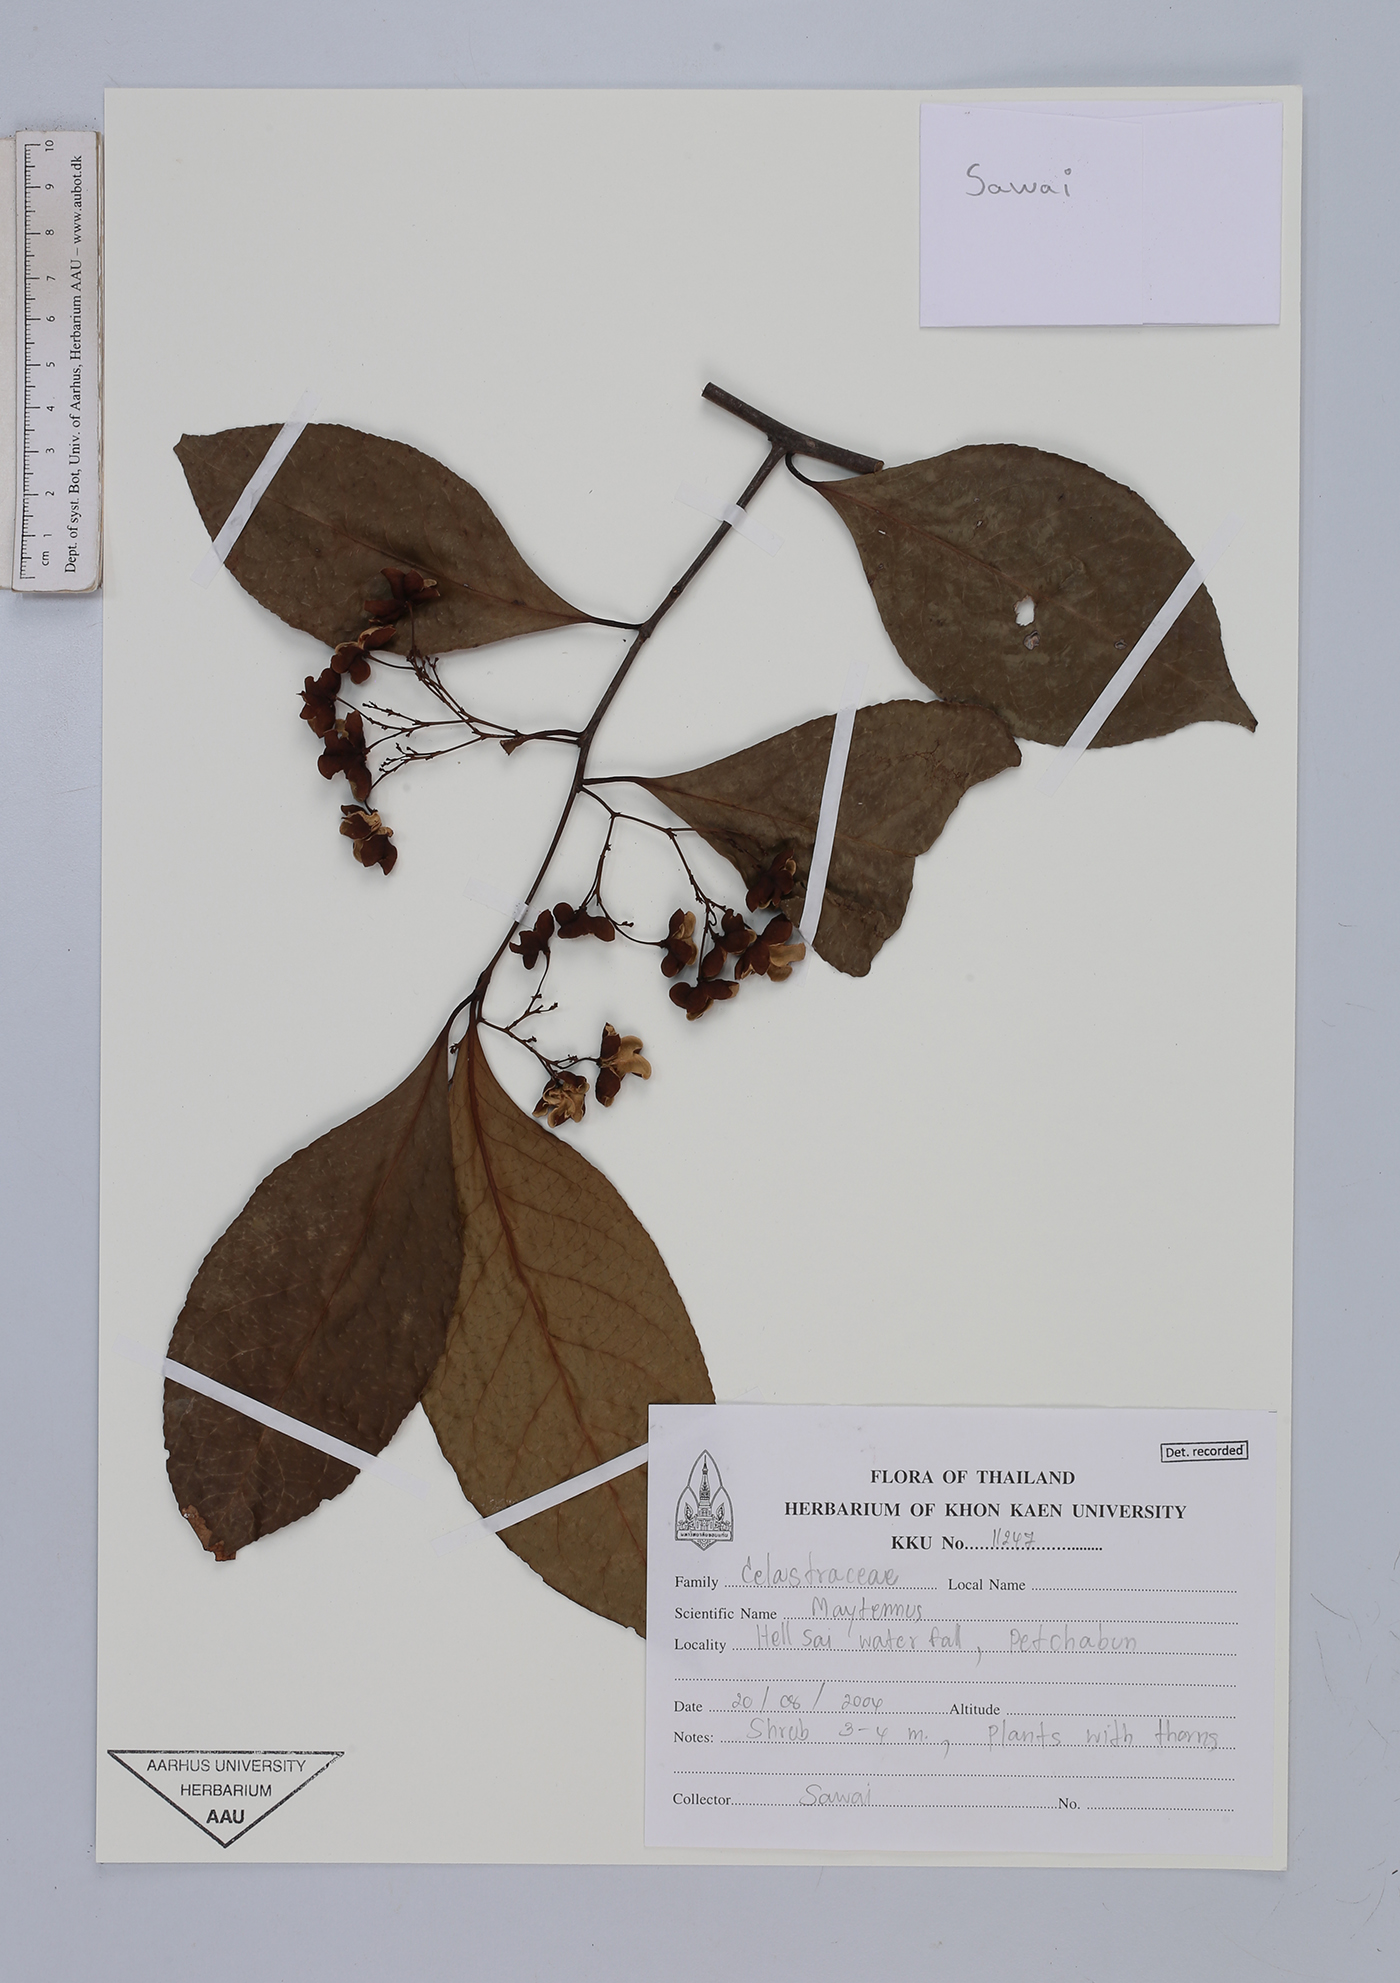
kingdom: Plantae
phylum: Tracheophyta
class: Magnoliopsida
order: Celastrales
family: Celastraceae
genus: Maytenus
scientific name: Maytenus
